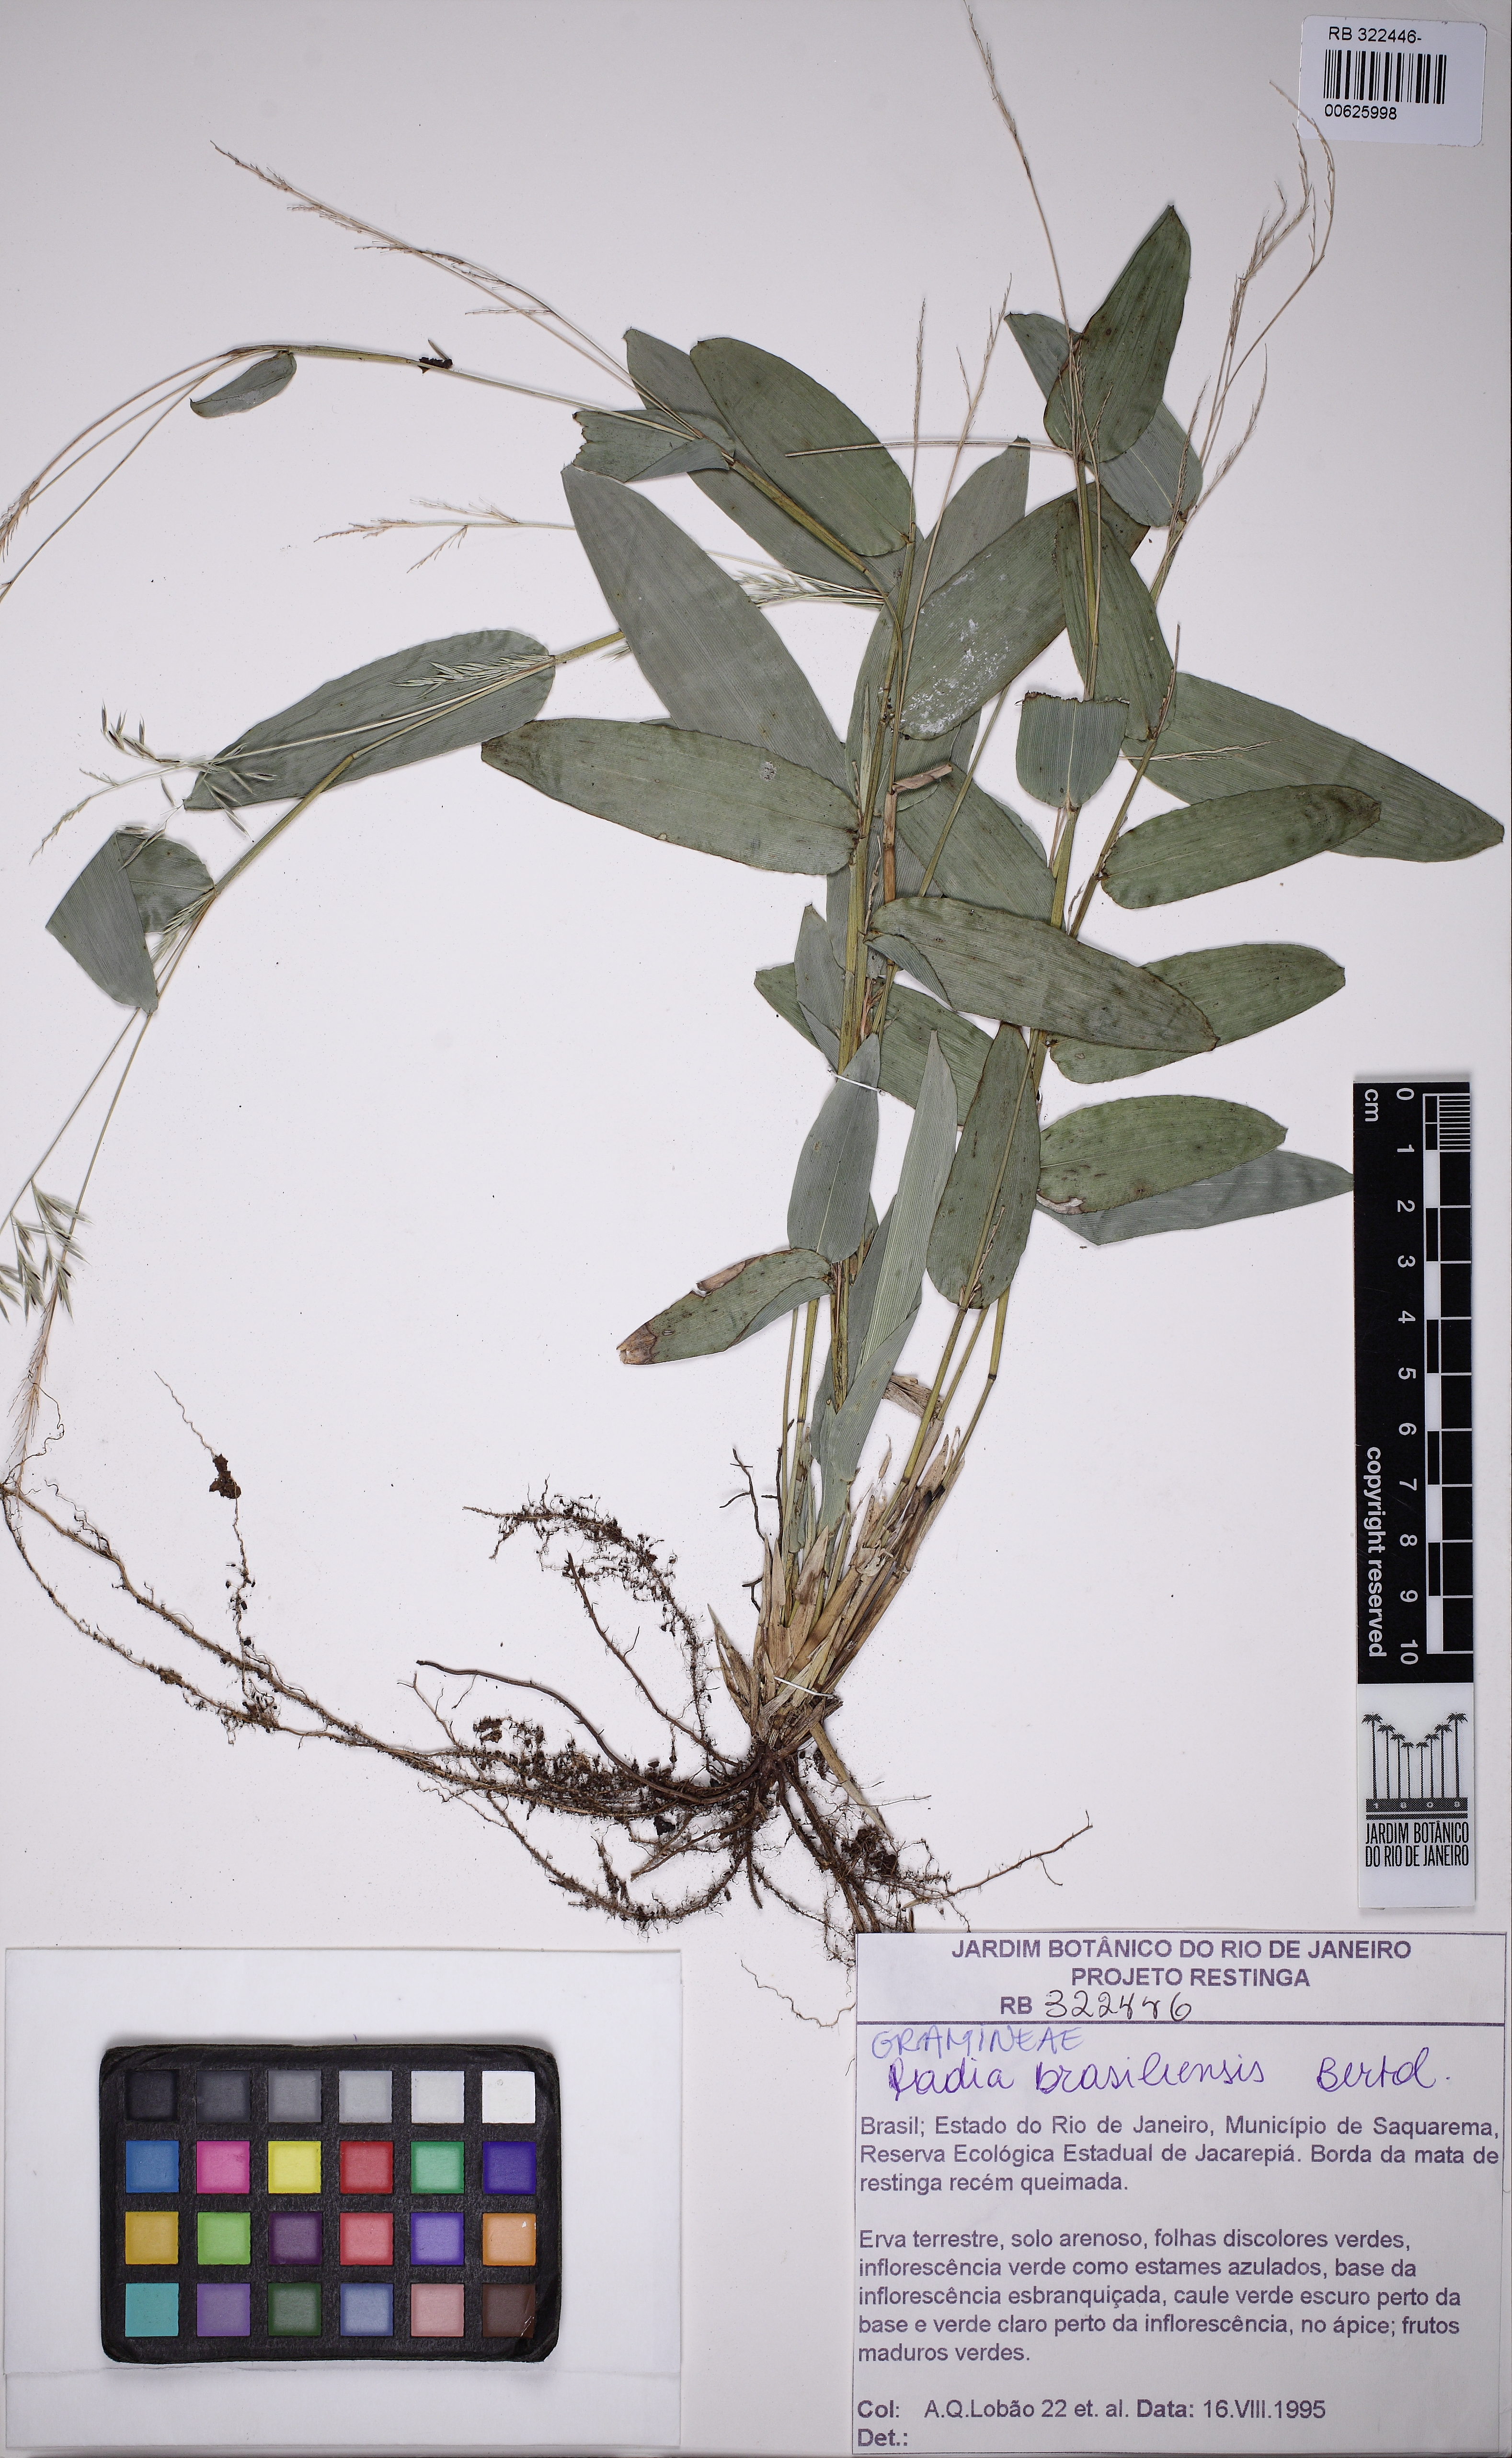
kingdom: Plantae
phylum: Tracheophyta
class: Liliopsida
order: Poales
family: Poaceae
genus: Raddia
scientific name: Raddia brasiliensis
